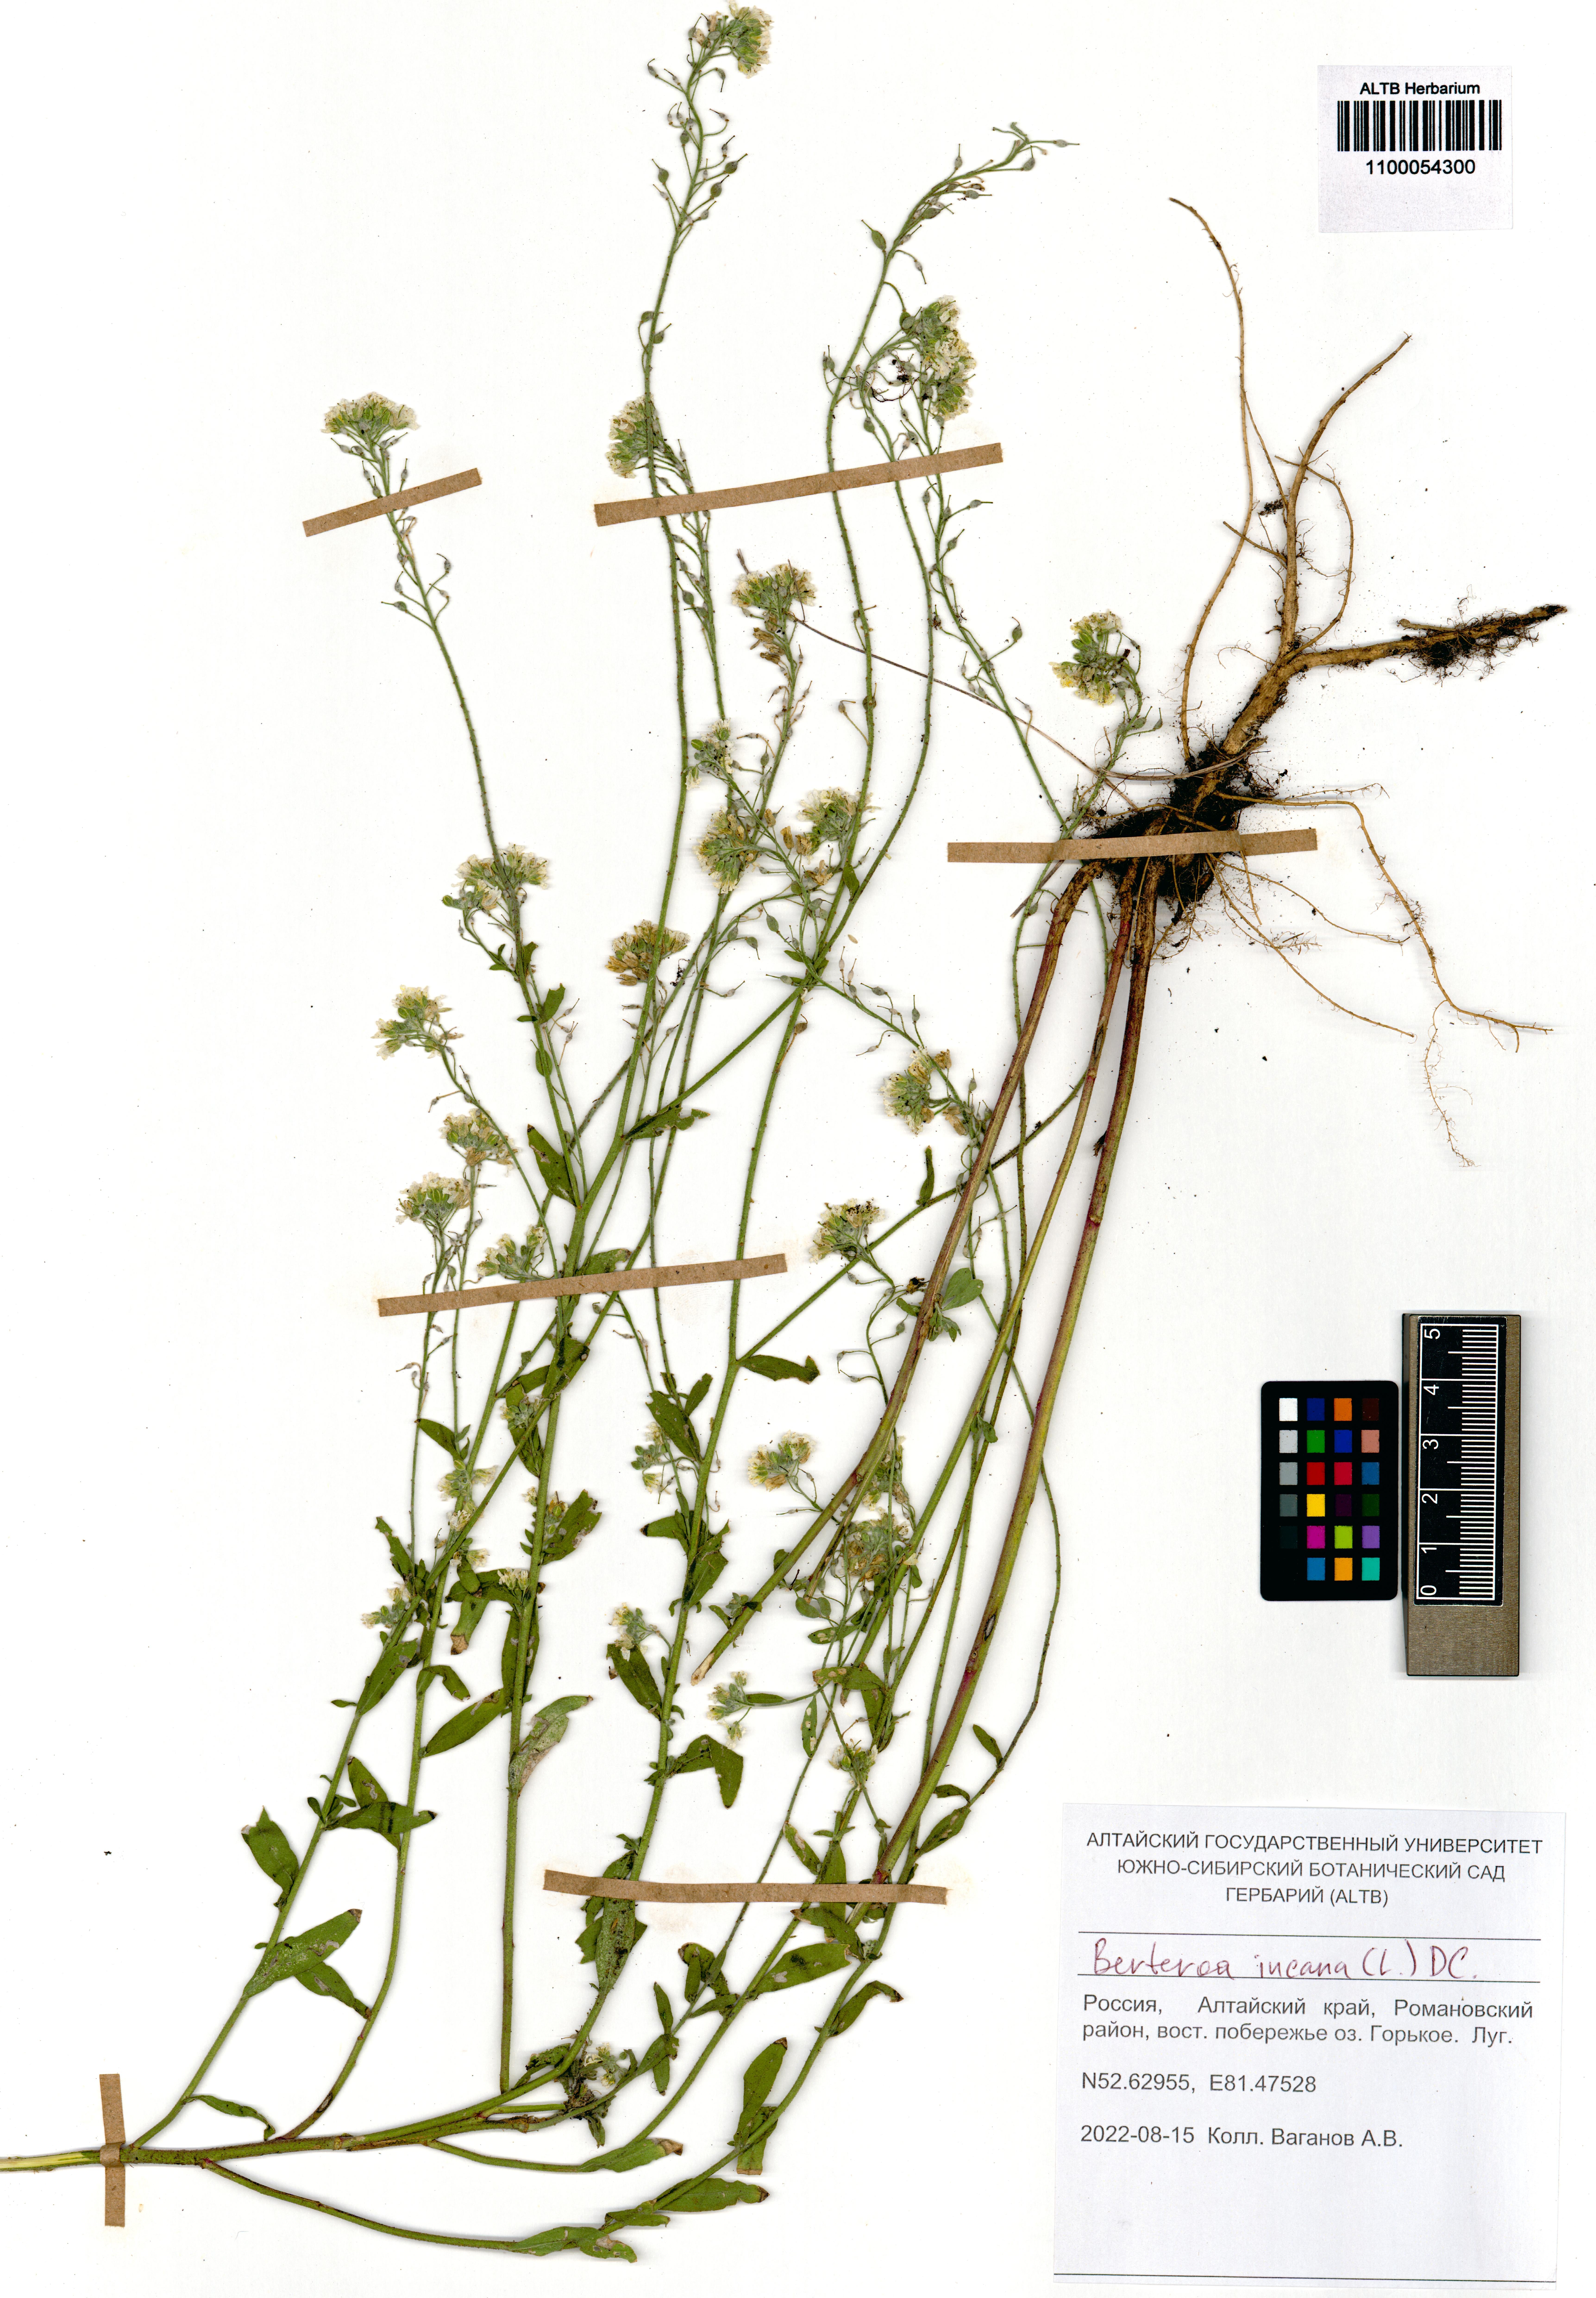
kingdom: Plantae
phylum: Tracheophyta
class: Magnoliopsida
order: Brassicales
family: Brassicaceae
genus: Berteroa
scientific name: Berteroa incana
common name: Hoary alison
